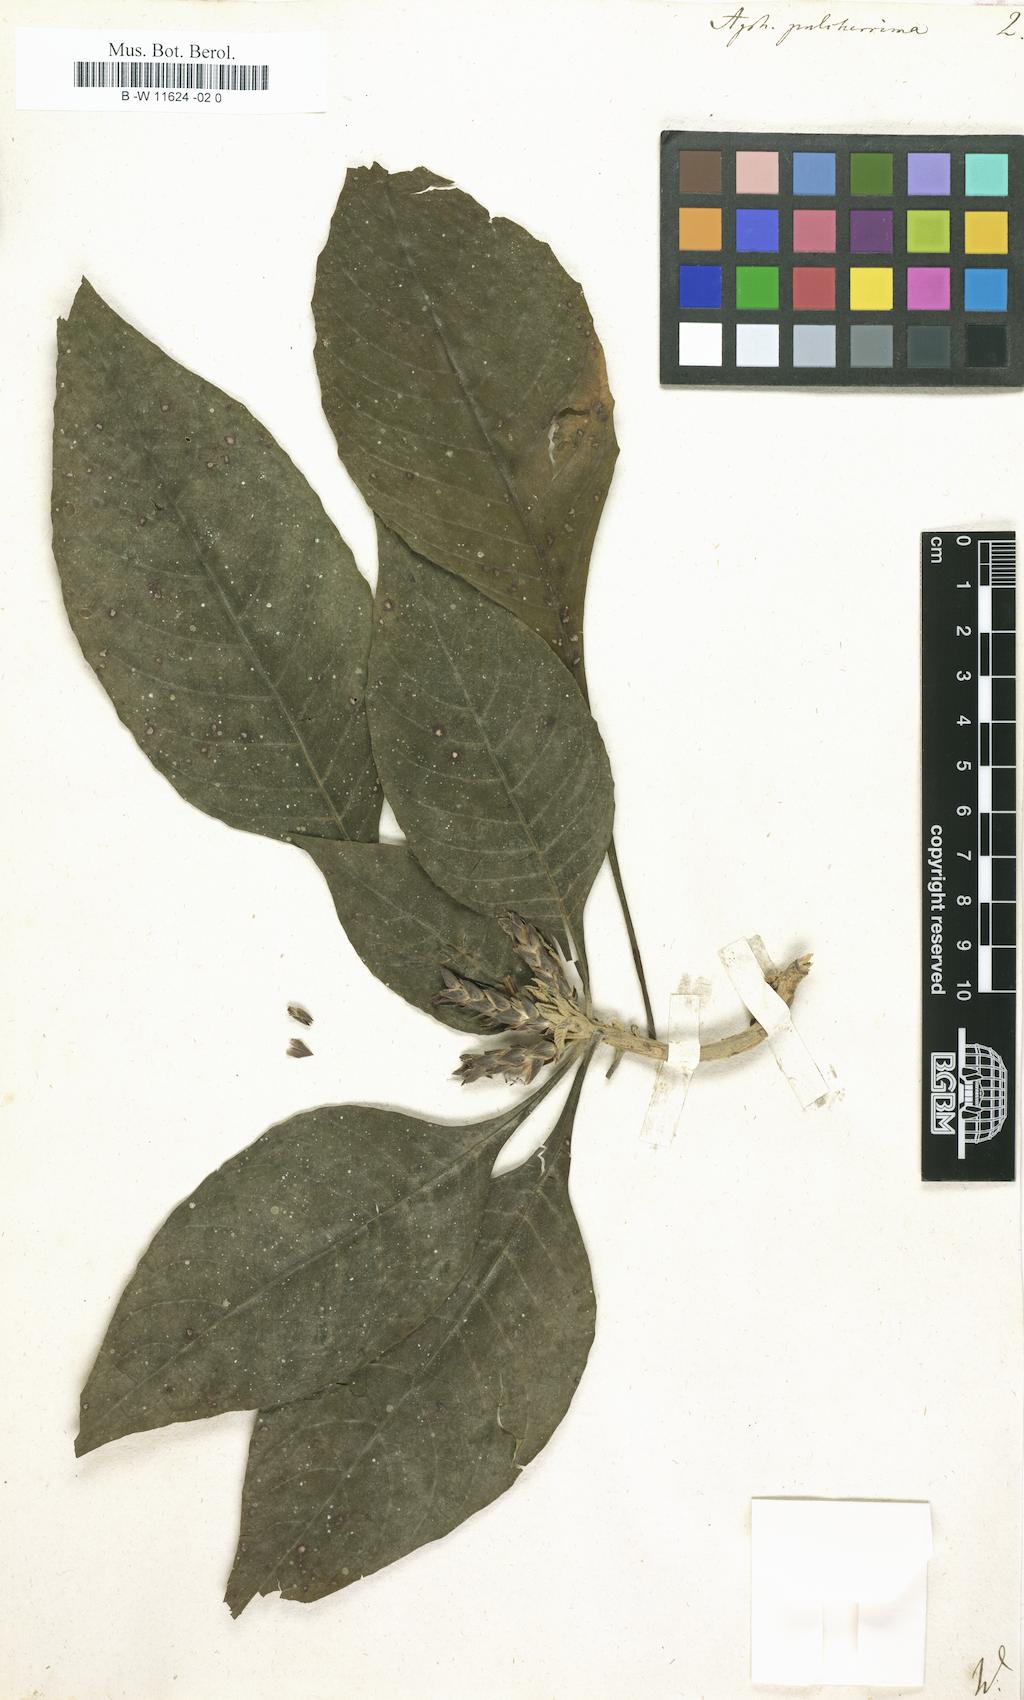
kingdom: Plantae
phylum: Tracheophyta
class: Magnoliopsida
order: Lamiales
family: Acanthaceae
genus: Aphelandra
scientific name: Aphelandra pulcherrima
